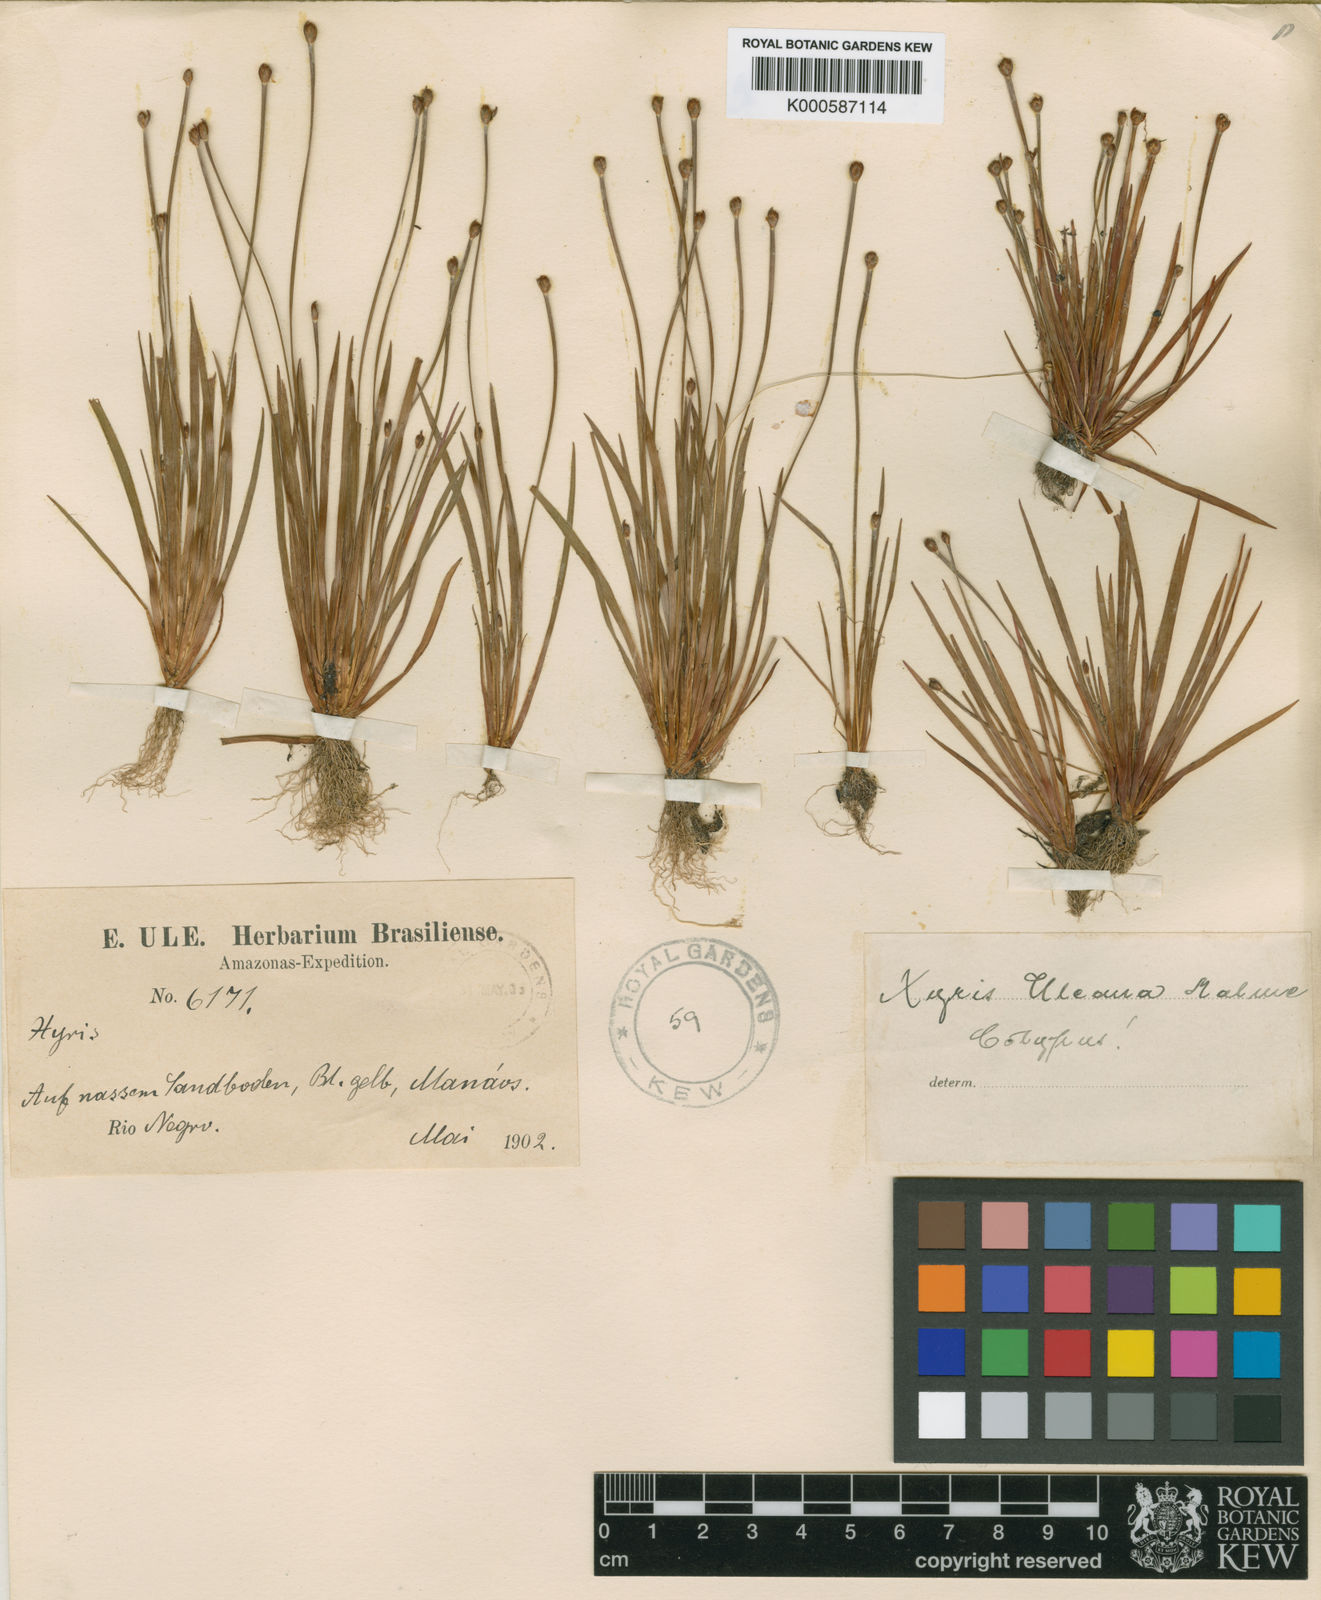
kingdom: Plantae
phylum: Tracheophyta
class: Liliopsida
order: Poales
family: Xyridaceae
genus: Xyris
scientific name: Xyris uleana
